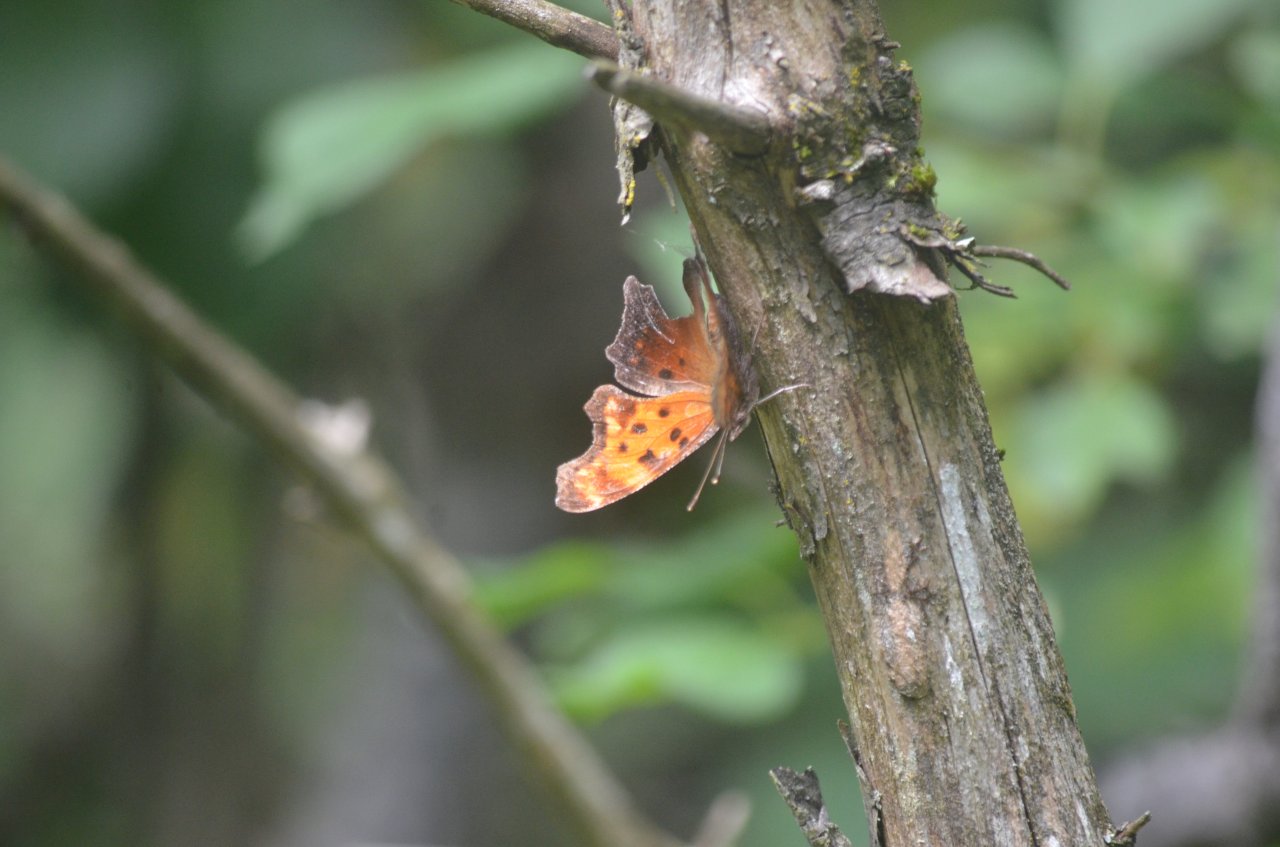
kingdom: Animalia
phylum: Arthropoda
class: Insecta
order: Lepidoptera
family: Nymphalidae
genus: Polygonia
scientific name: Polygonia progne
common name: Gray Comma
